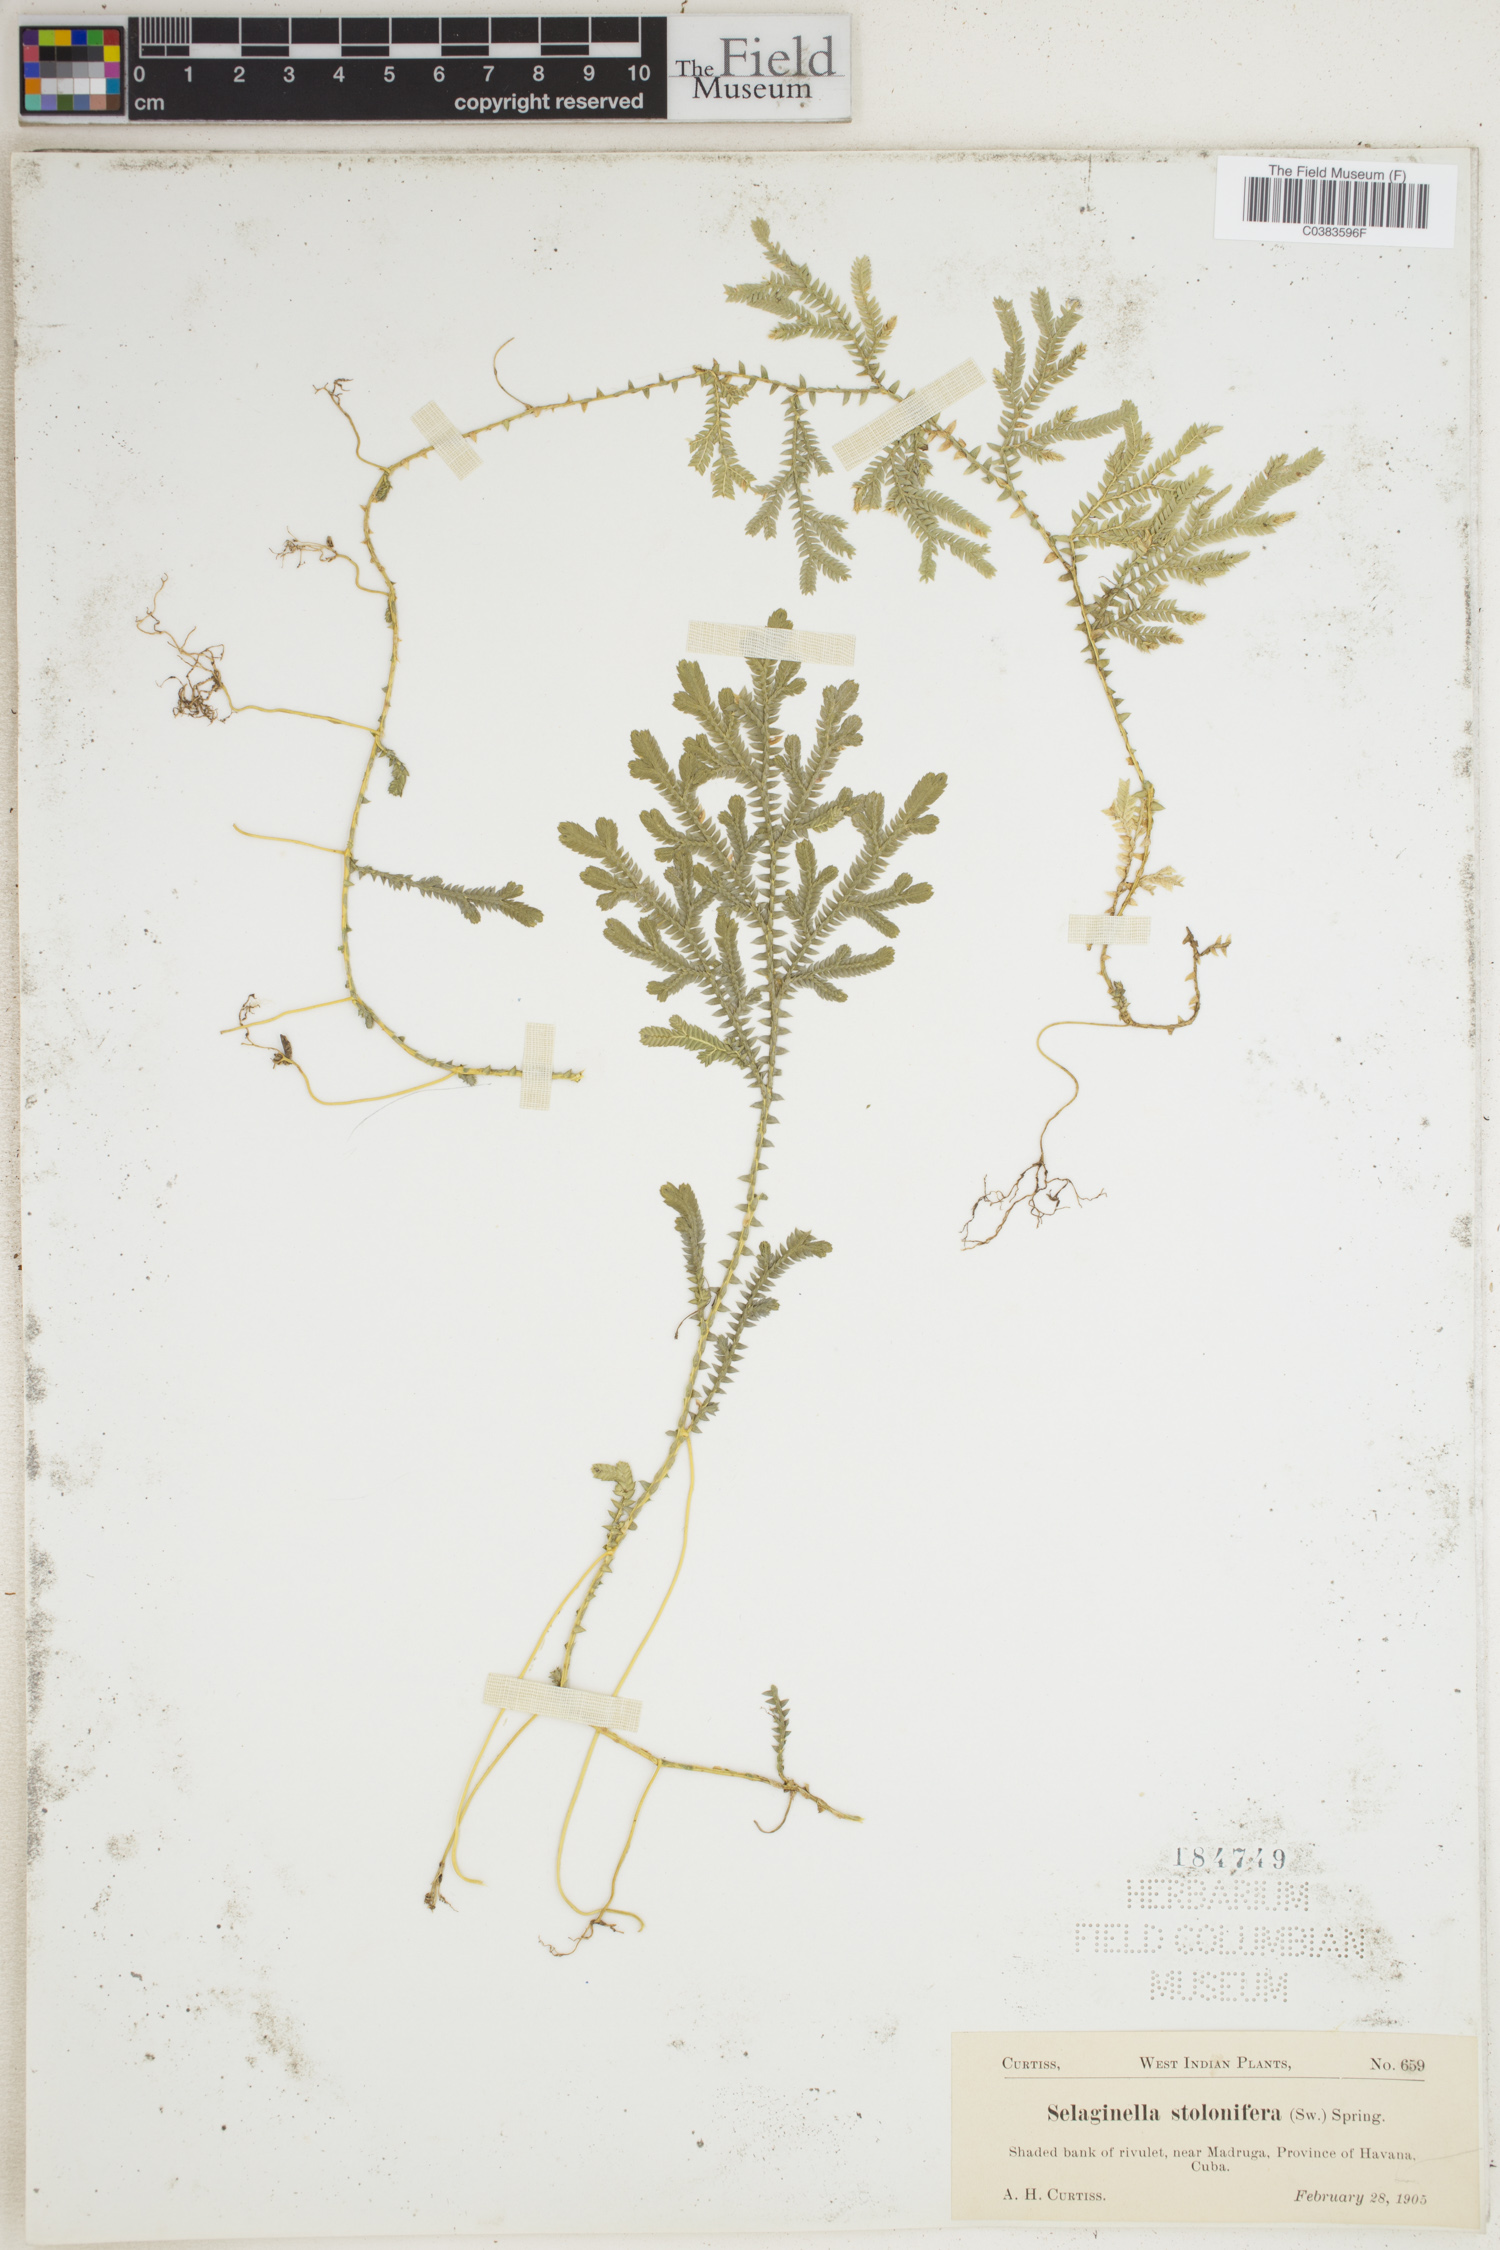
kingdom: Plantae
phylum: Tracheophyta
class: Lycopodiopsida
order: Selaginellales
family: Selaginellaceae
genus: Selaginella
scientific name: Selaginella plumosa
